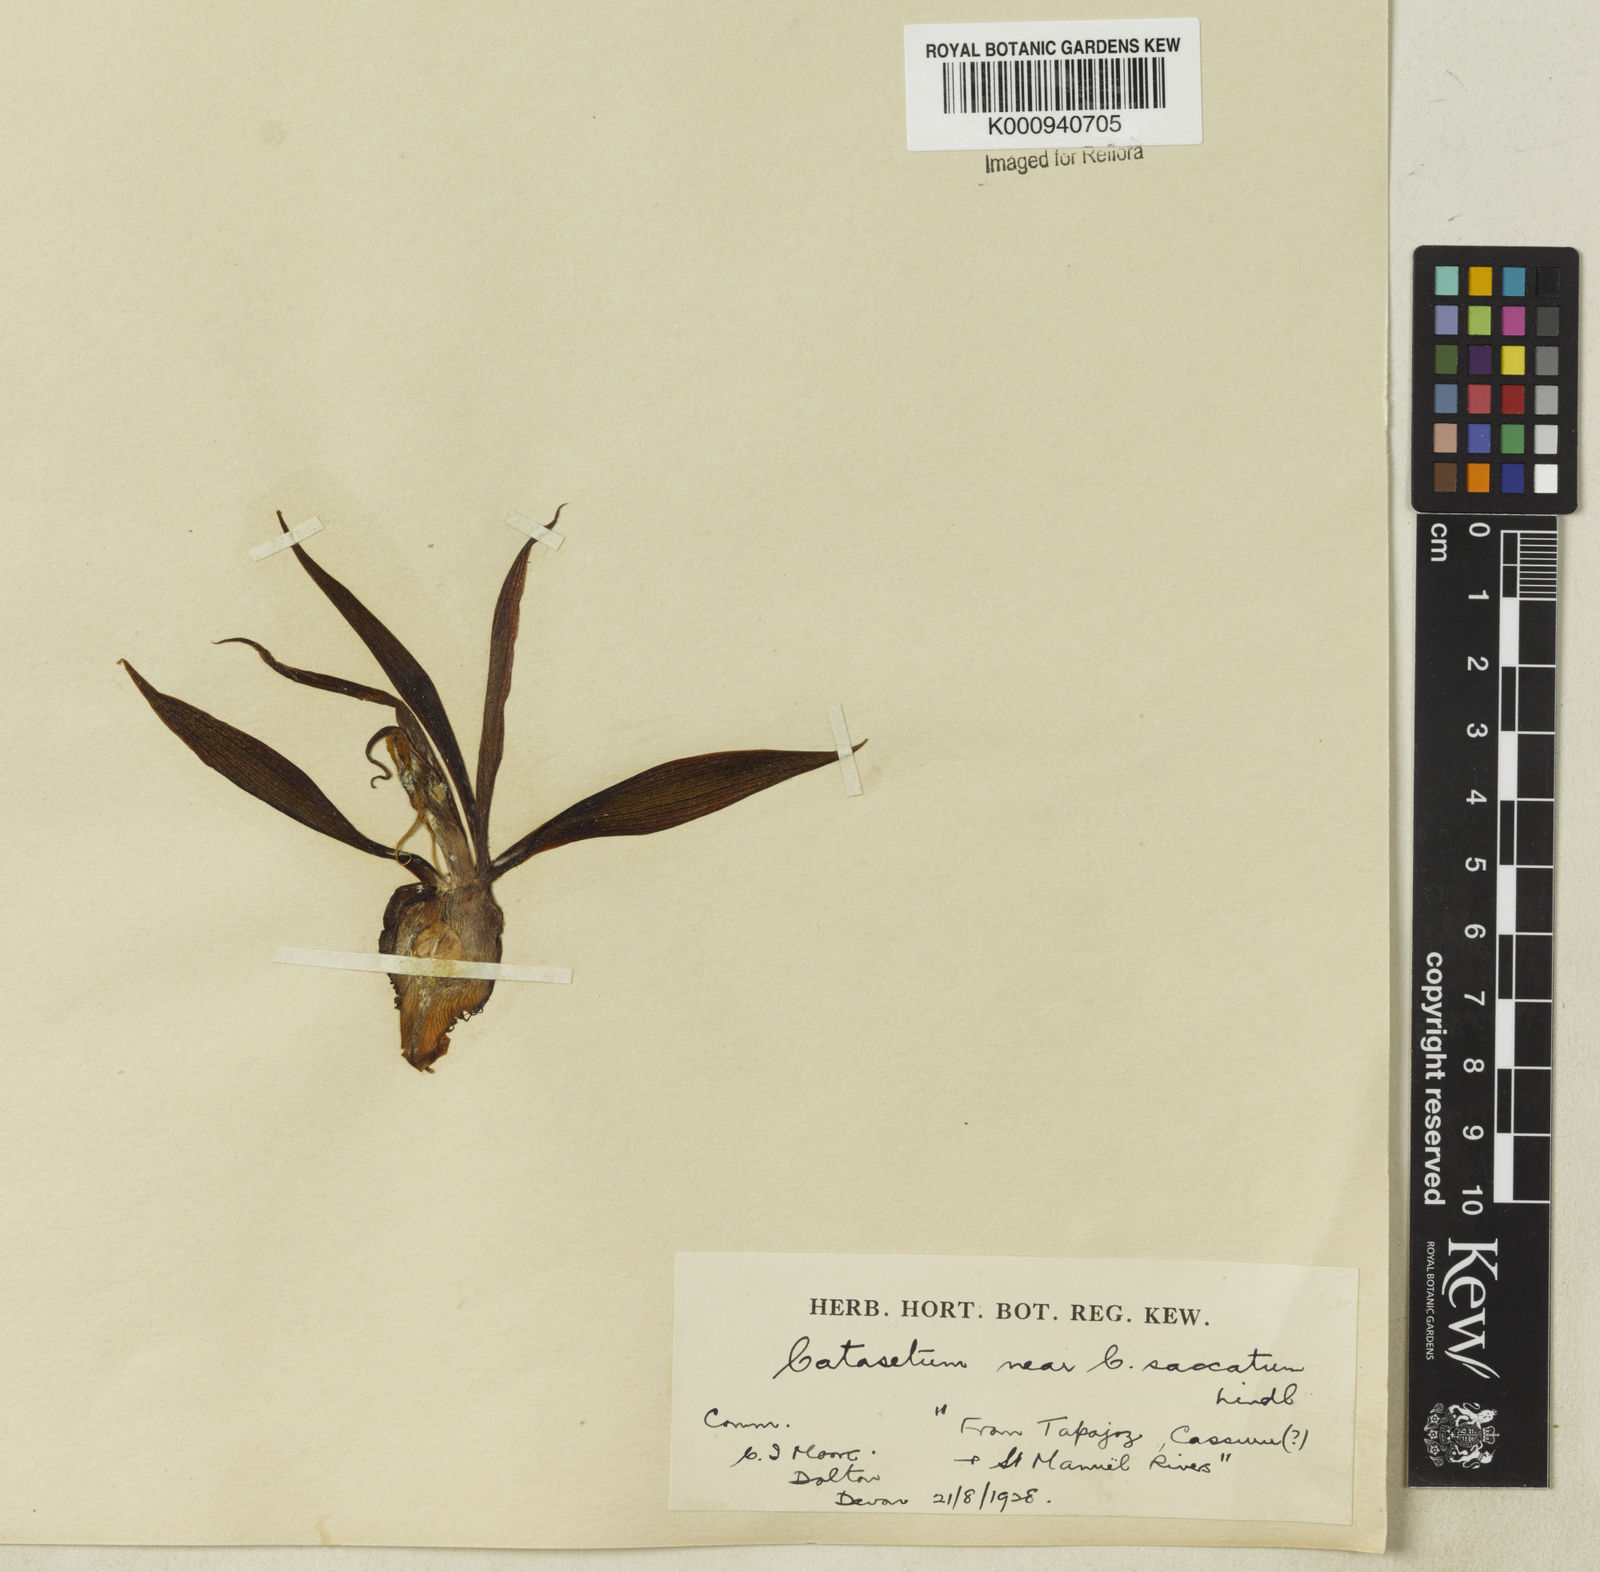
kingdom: Plantae
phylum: Tracheophyta
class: Liliopsida
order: Asparagales
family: Orchidaceae
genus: Catasetum
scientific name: Catasetum saccatum
